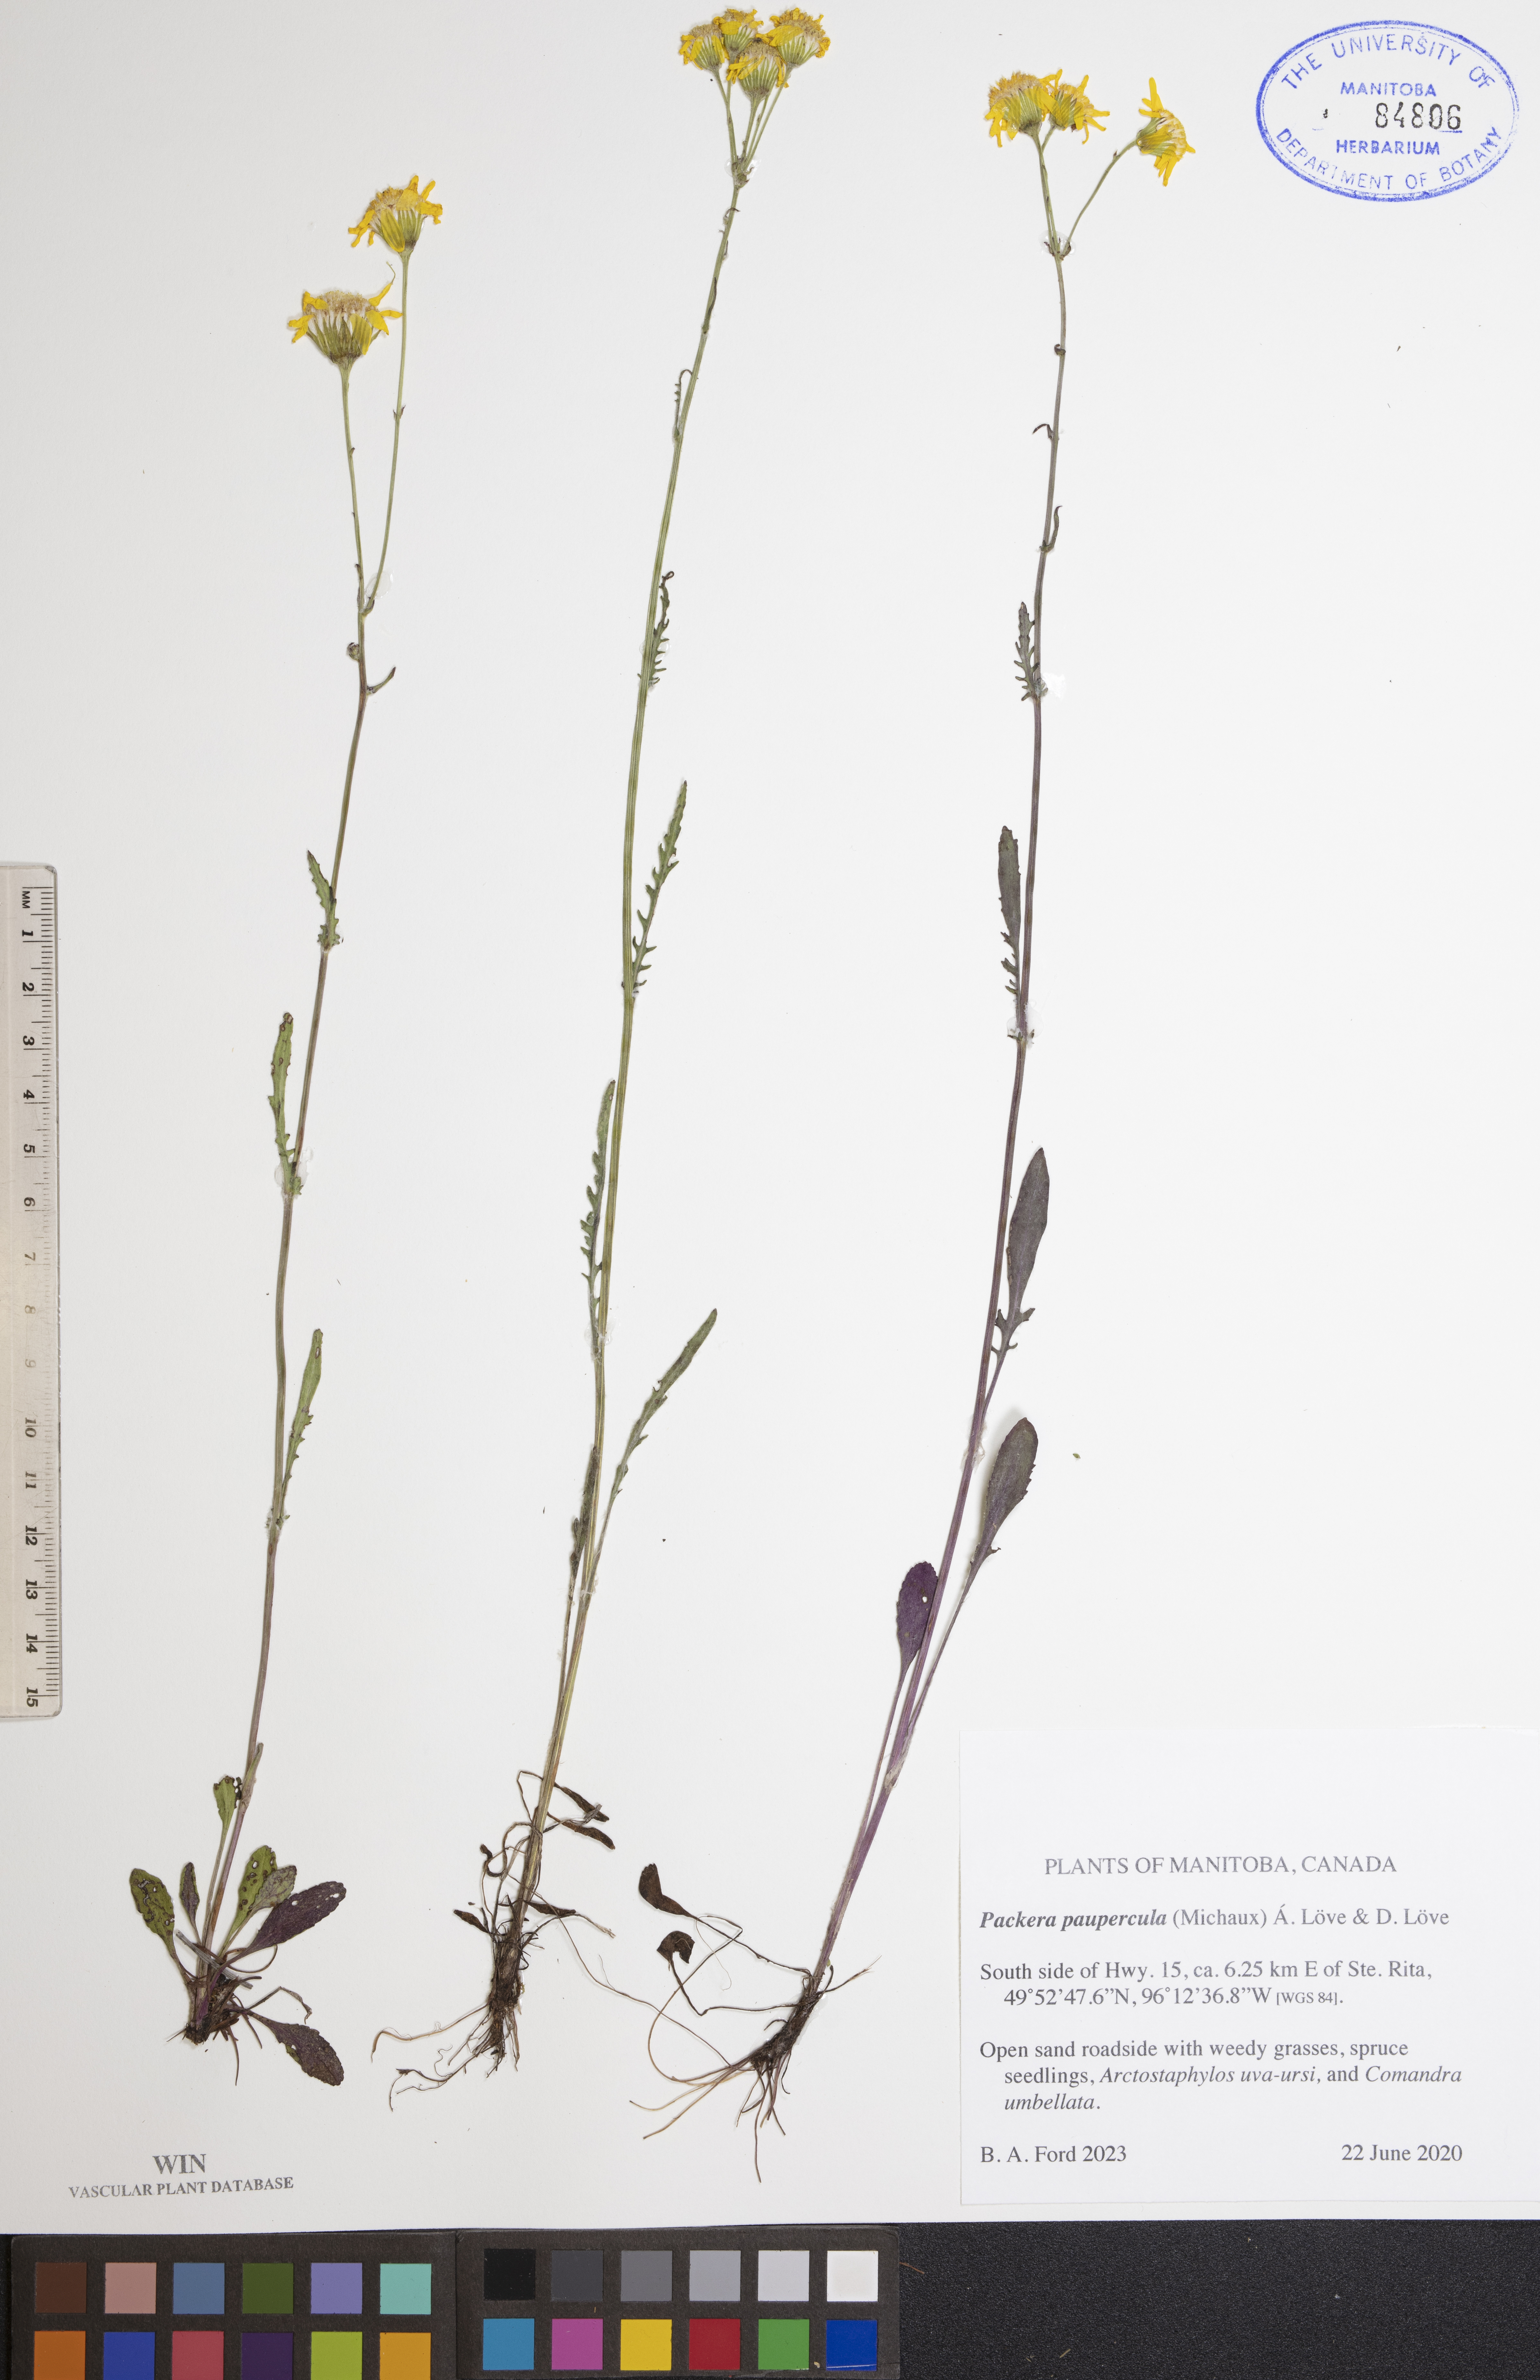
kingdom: Plantae
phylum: Tracheophyta
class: Magnoliopsida
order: Asterales
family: Asteraceae
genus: Packera
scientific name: Packera paupercula
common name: Balsam groundsel
